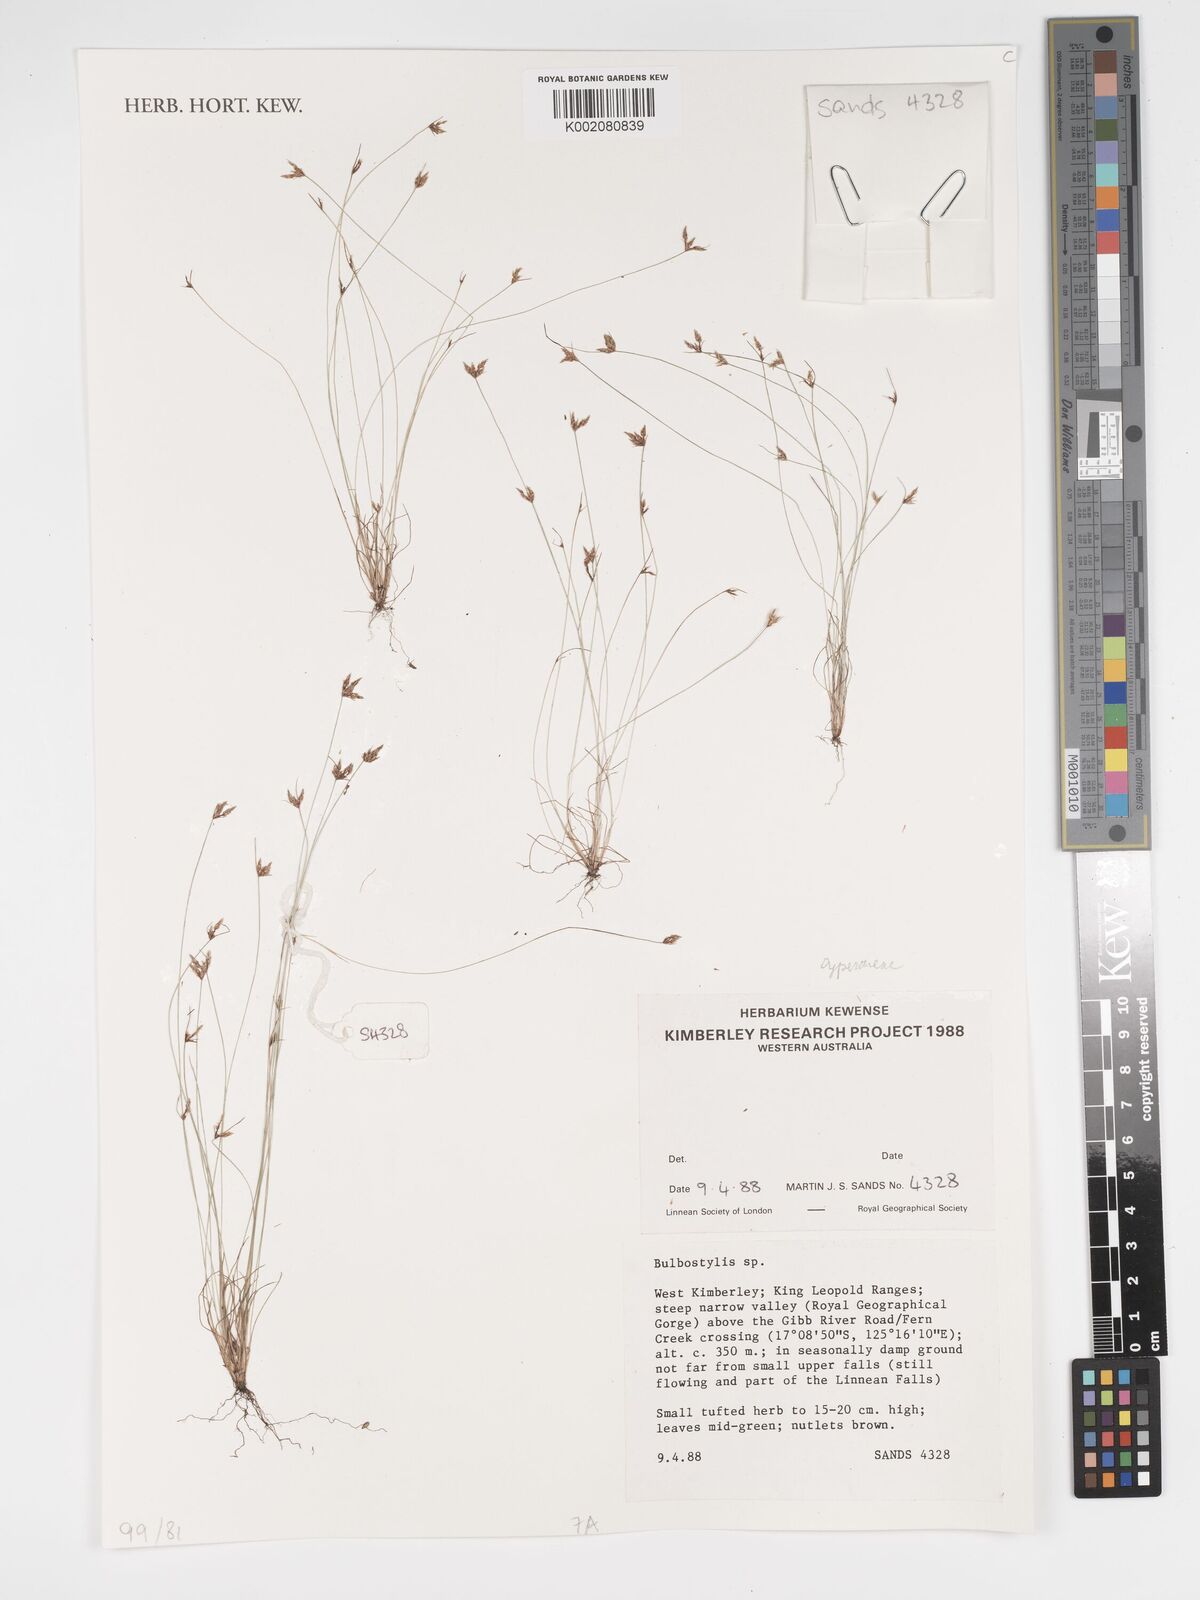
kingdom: Plantae
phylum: Tracheophyta
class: Liliopsida
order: Poales
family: Cyperaceae
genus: Bulbostylis
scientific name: Bulbostylis
